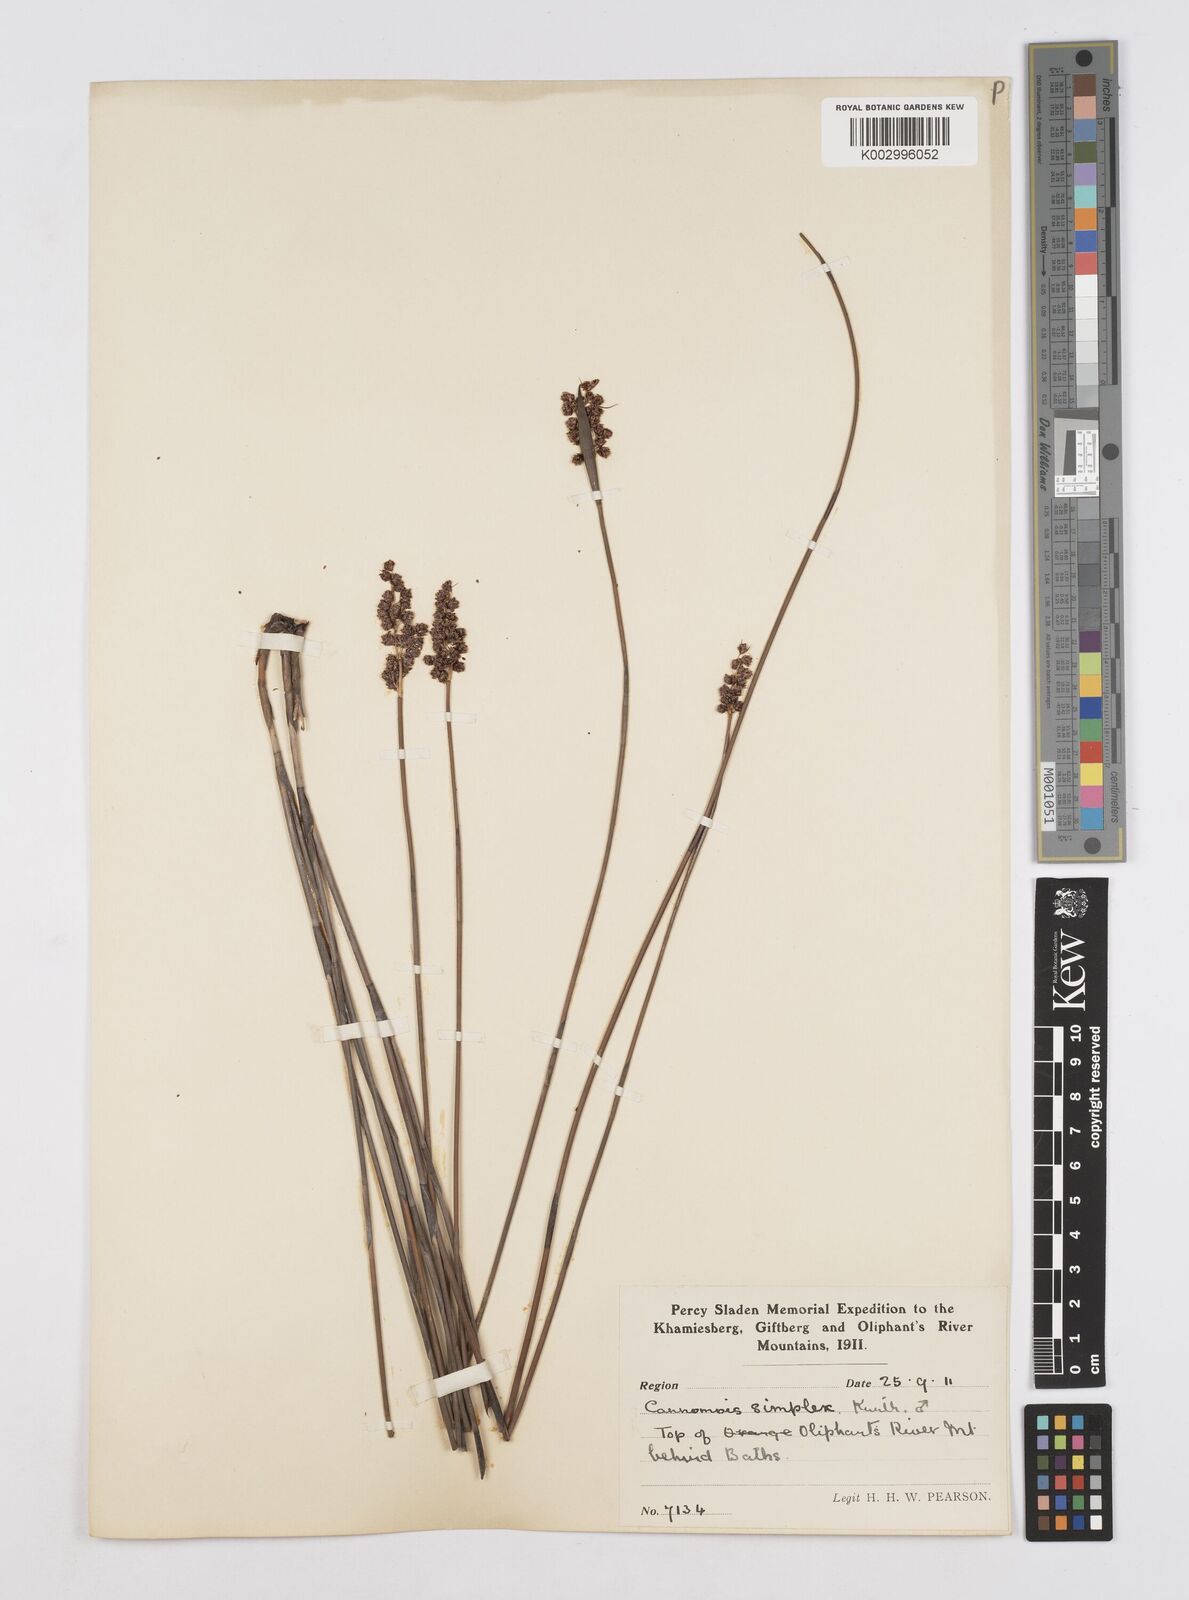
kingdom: Plantae
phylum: Tracheophyta
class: Liliopsida
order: Poales
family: Restionaceae
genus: Cannomois
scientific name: Cannomois parviflora
